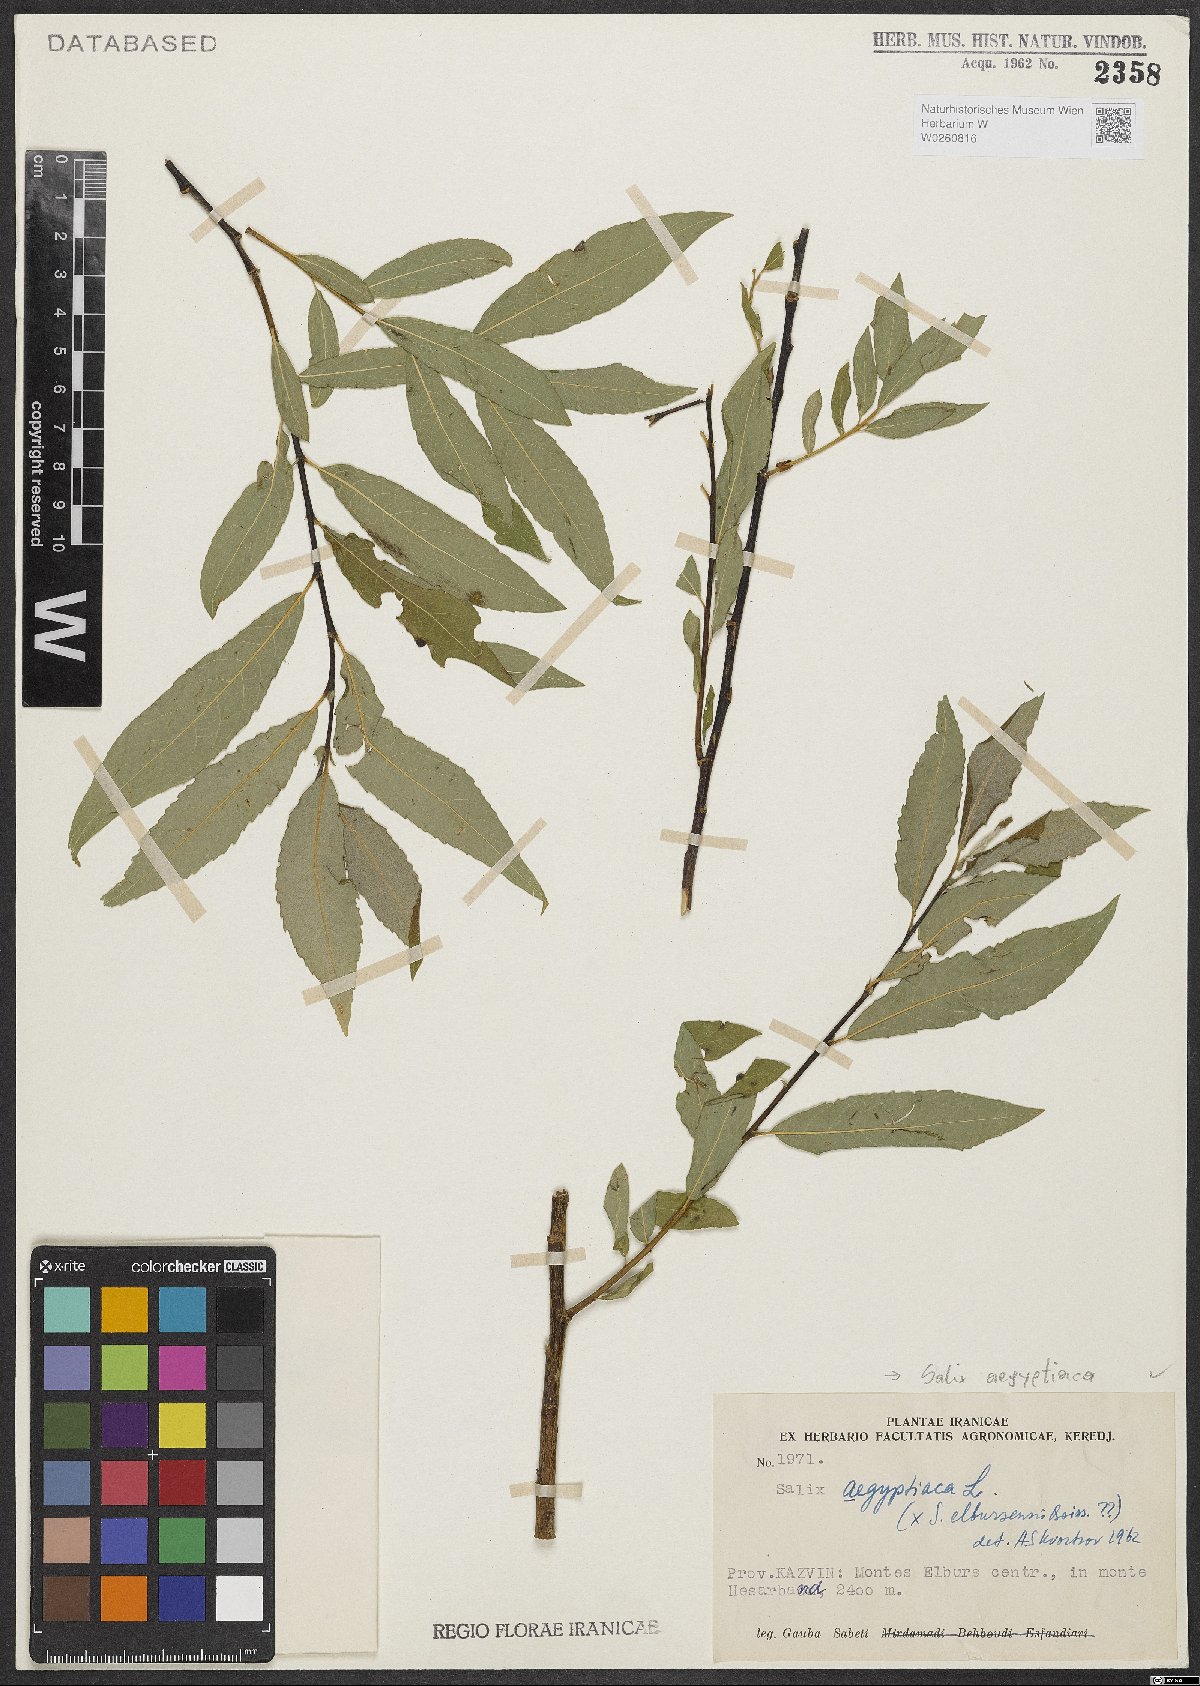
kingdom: Plantae
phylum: Tracheophyta
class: Magnoliopsida
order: Malpighiales
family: Salicaceae
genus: Salix
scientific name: Salix aegyptiaca
